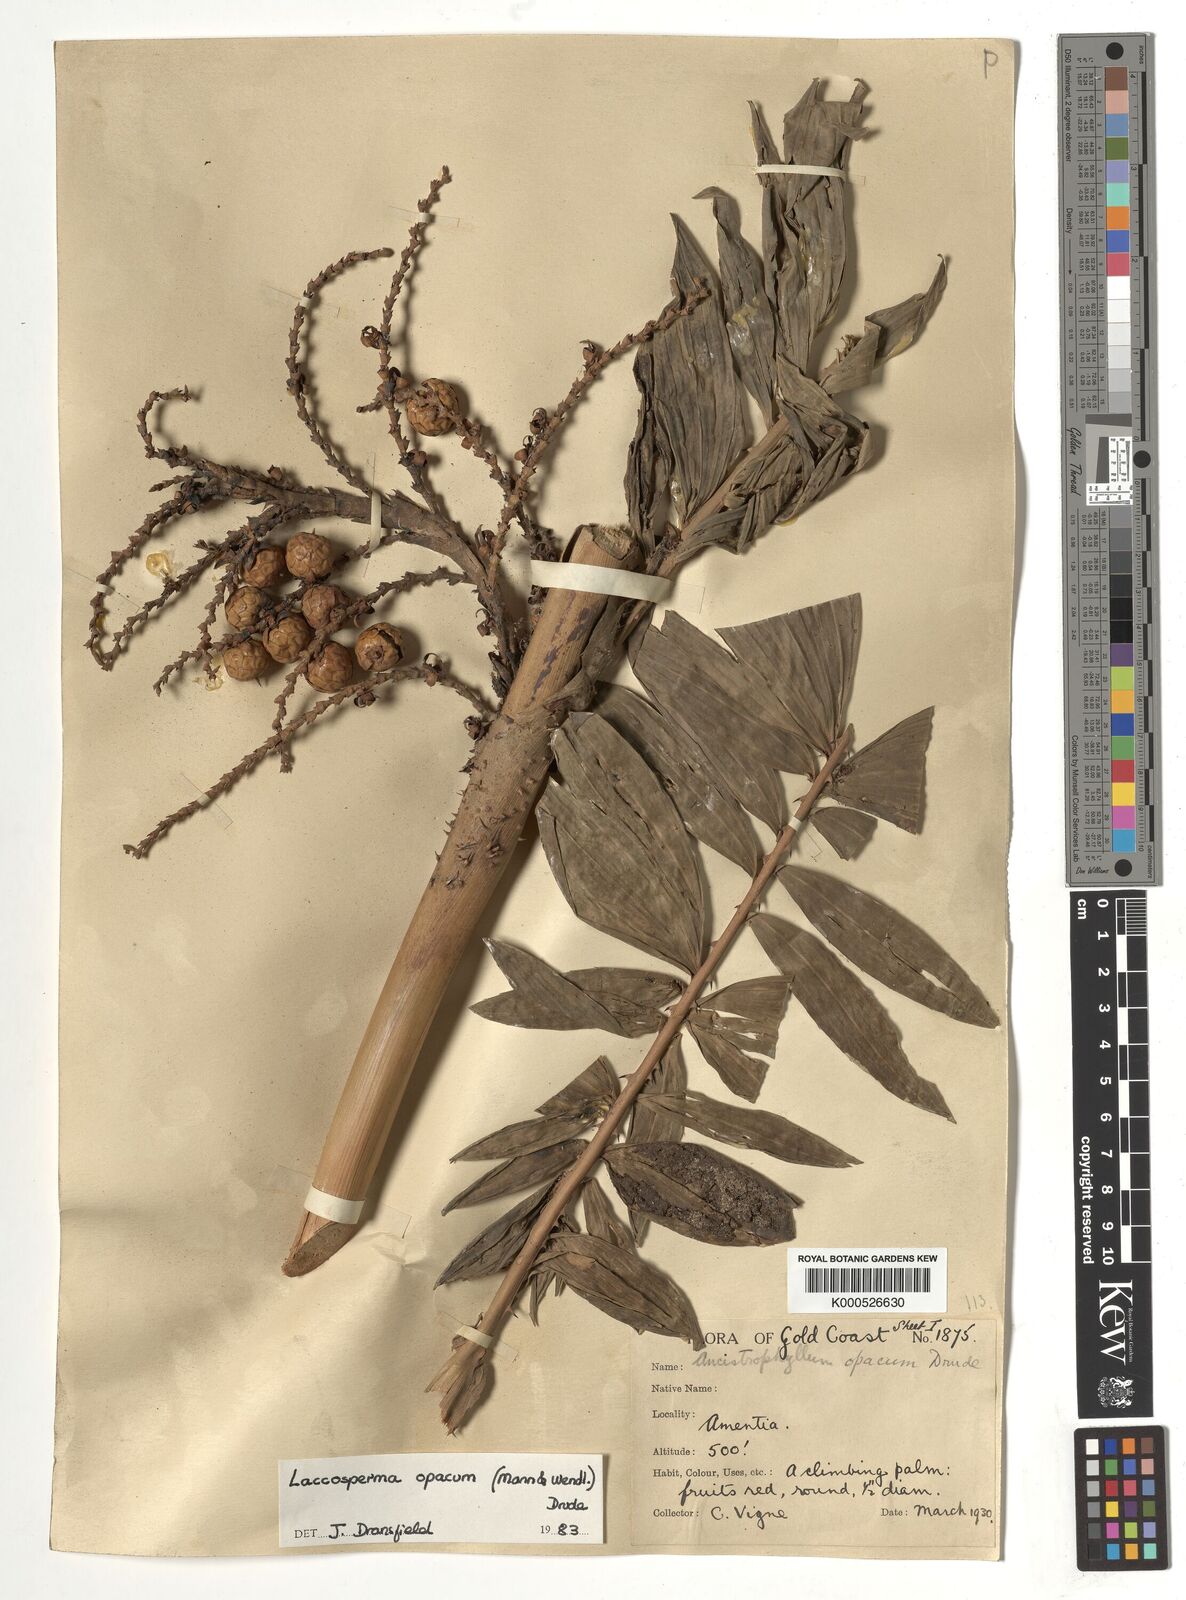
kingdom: Plantae
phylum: Tracheophyta
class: Liliopsida
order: Arecales
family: Arecaceae
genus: Laccosperma
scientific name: Laccosperma opacum
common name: Rattan
